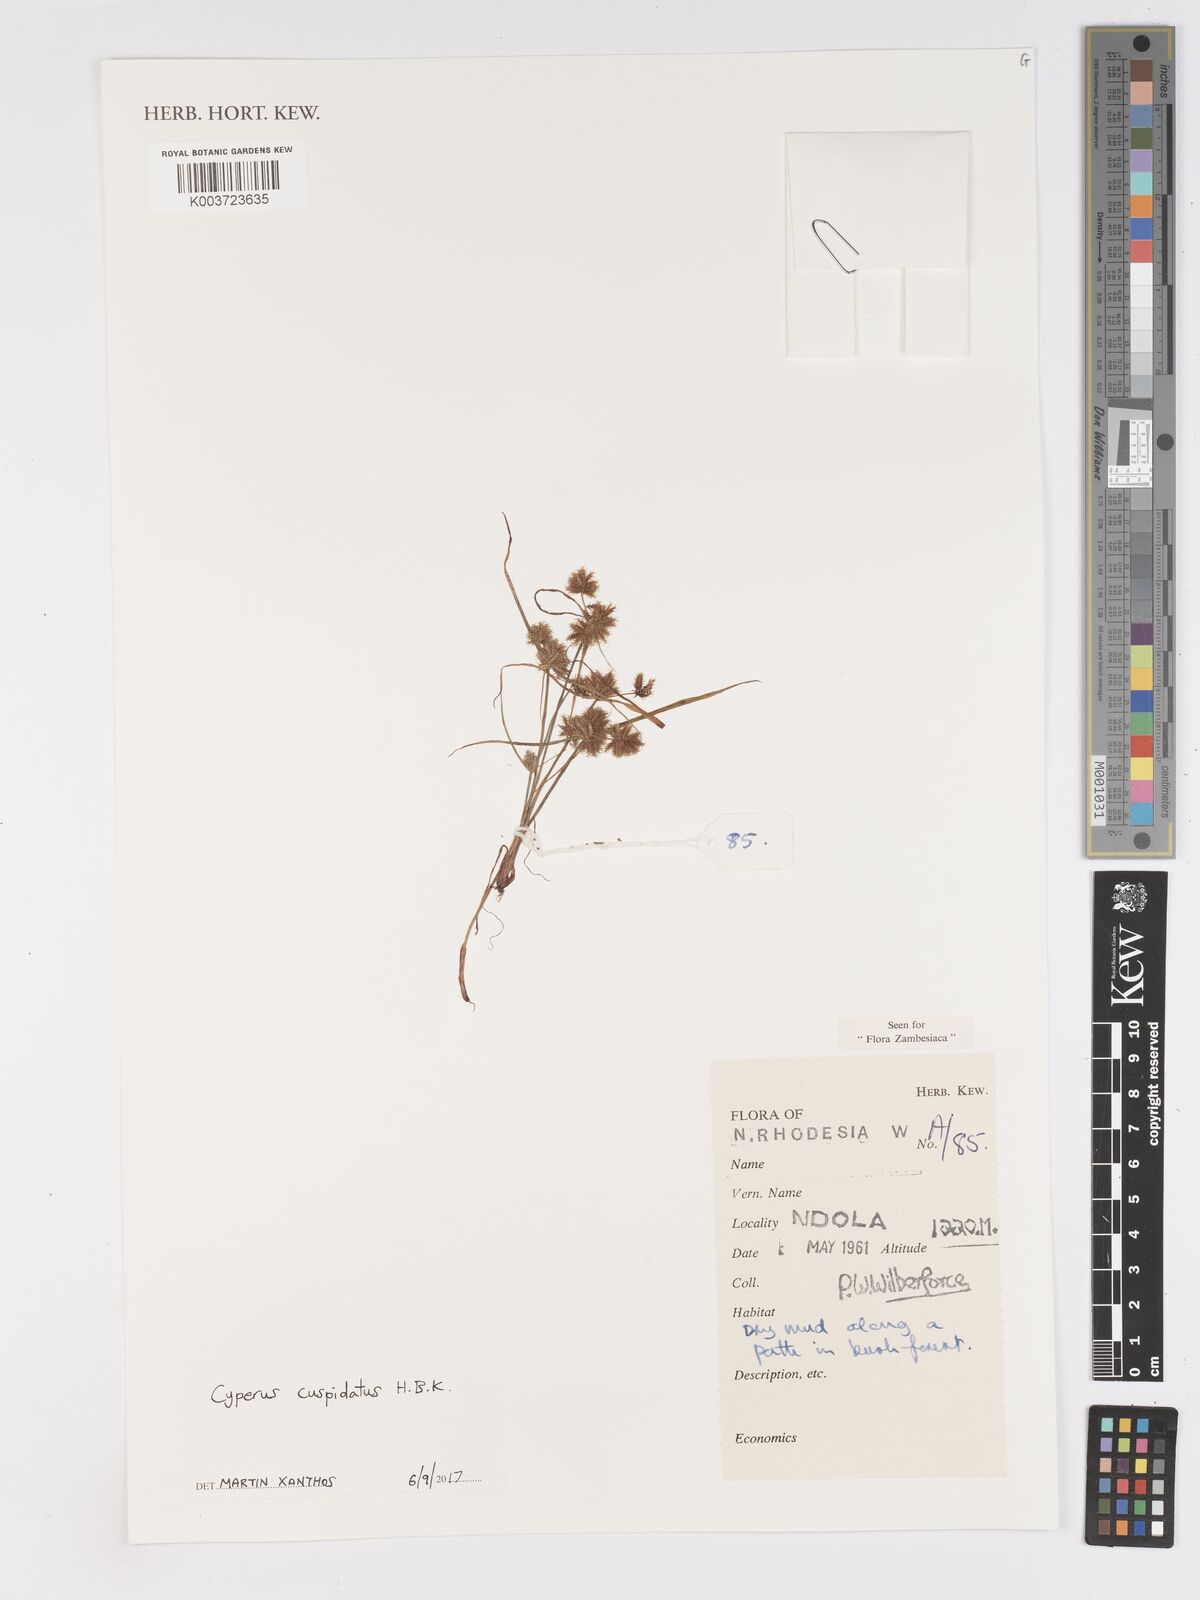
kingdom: Plantae
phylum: Tracheophyta
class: Liliopsida
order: Poales
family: Cyperaceae
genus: Cyperus
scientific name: Cyperus betafensis
